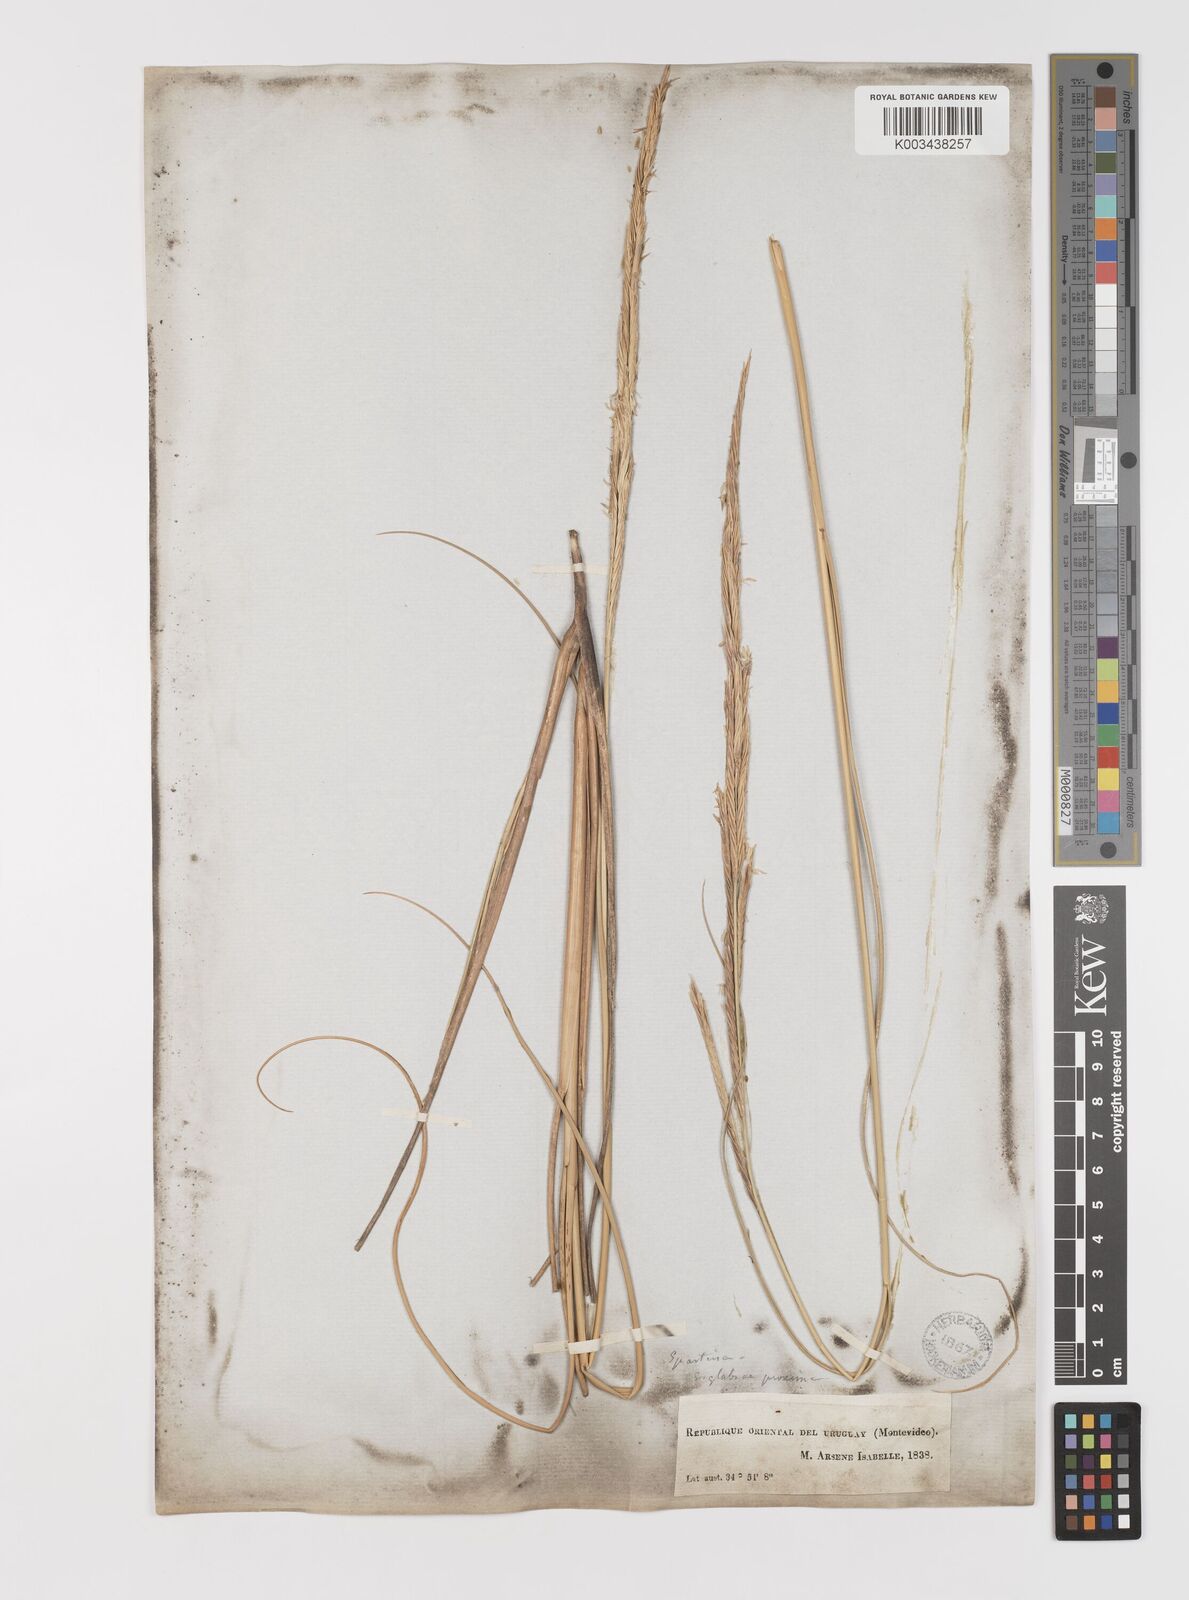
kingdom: Plantae
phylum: Tracheophyta
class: Liliopsida
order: Poales
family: Poaceae
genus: Sporobolus
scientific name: Sporobolus montevidensis
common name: Montevideo dropseed
